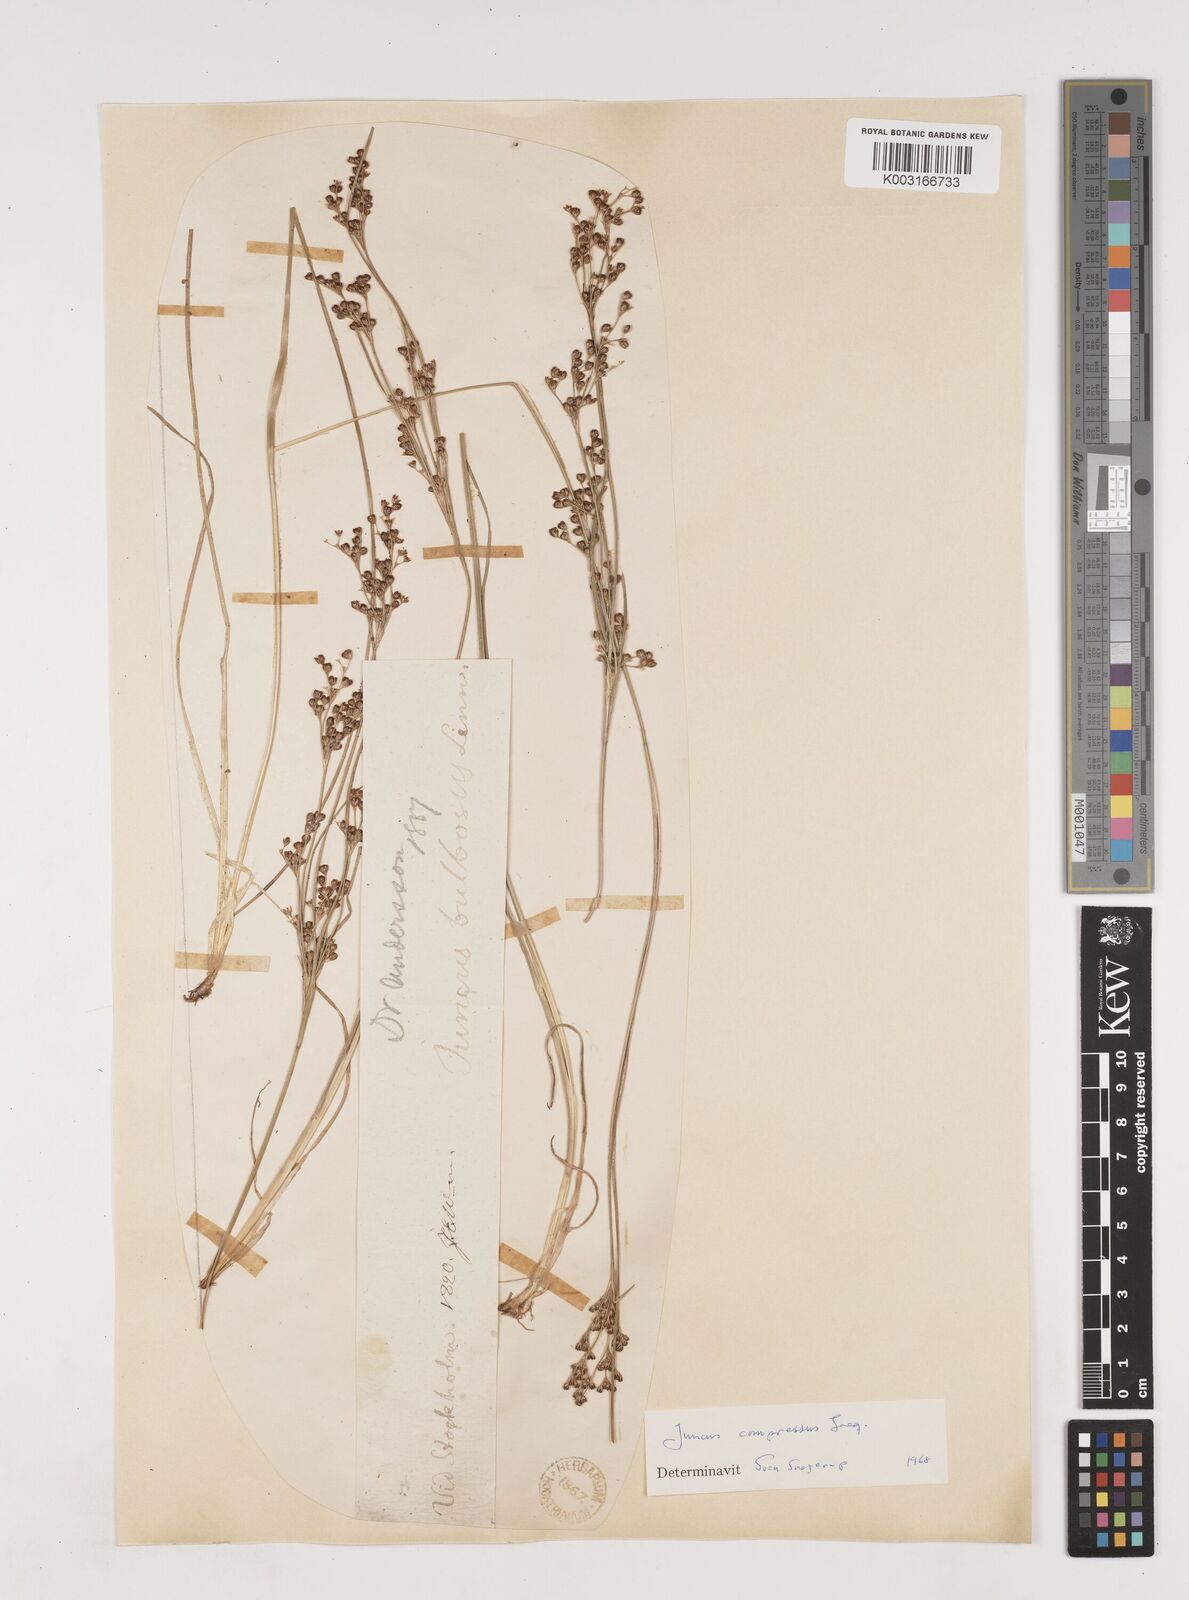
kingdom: Plantae
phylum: Tracheophyta
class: Liliopsida
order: Poales
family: Juncaceae
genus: Juncus
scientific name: Juncus
